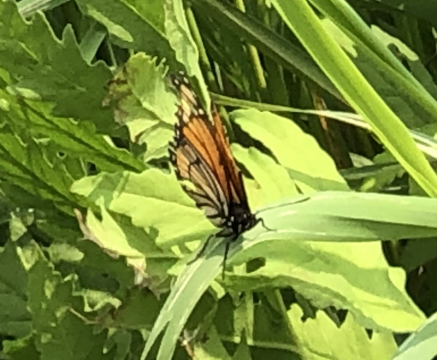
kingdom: Animalia
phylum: Arthropoda
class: Insecta
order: Lepidoptera
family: Nymphalidae
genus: Limenitis
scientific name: Limenitis archippus
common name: Viceroy
